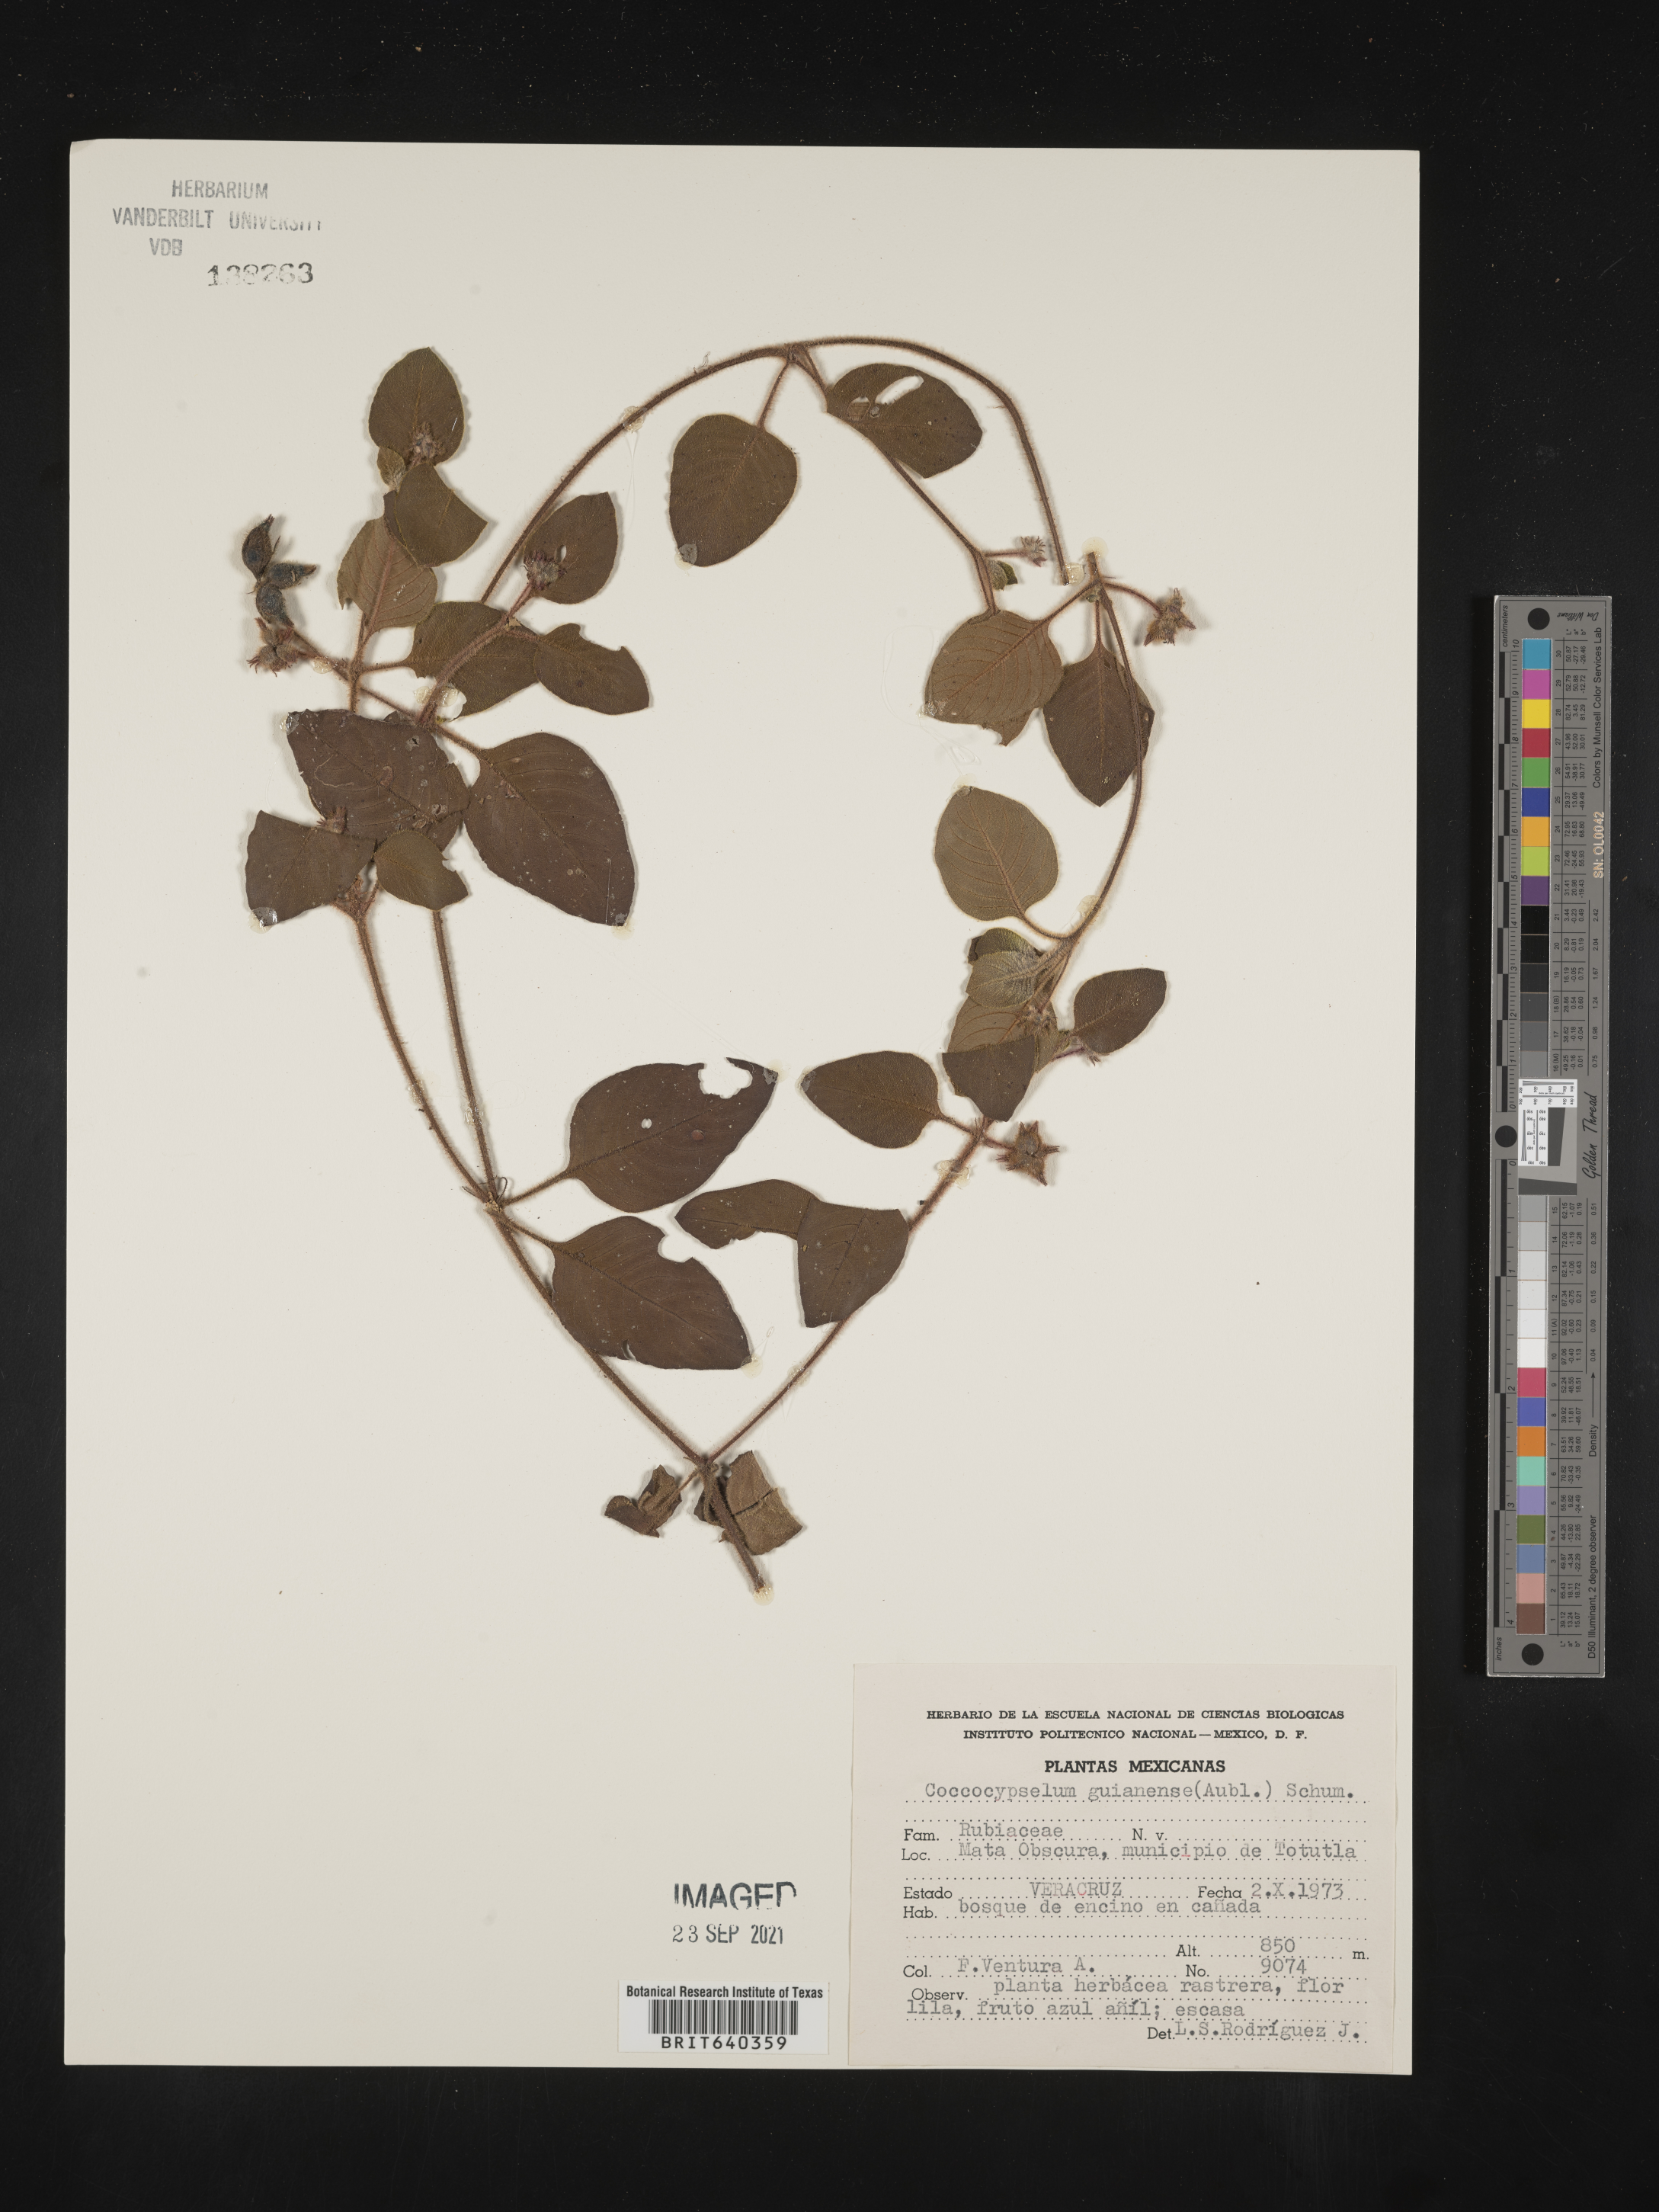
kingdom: Plantae
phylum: Tracheophyta
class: Magnoliopsida
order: Gentianales
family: Rubiaceae
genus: Coccocypselum
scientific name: Coccocypselum guianense
